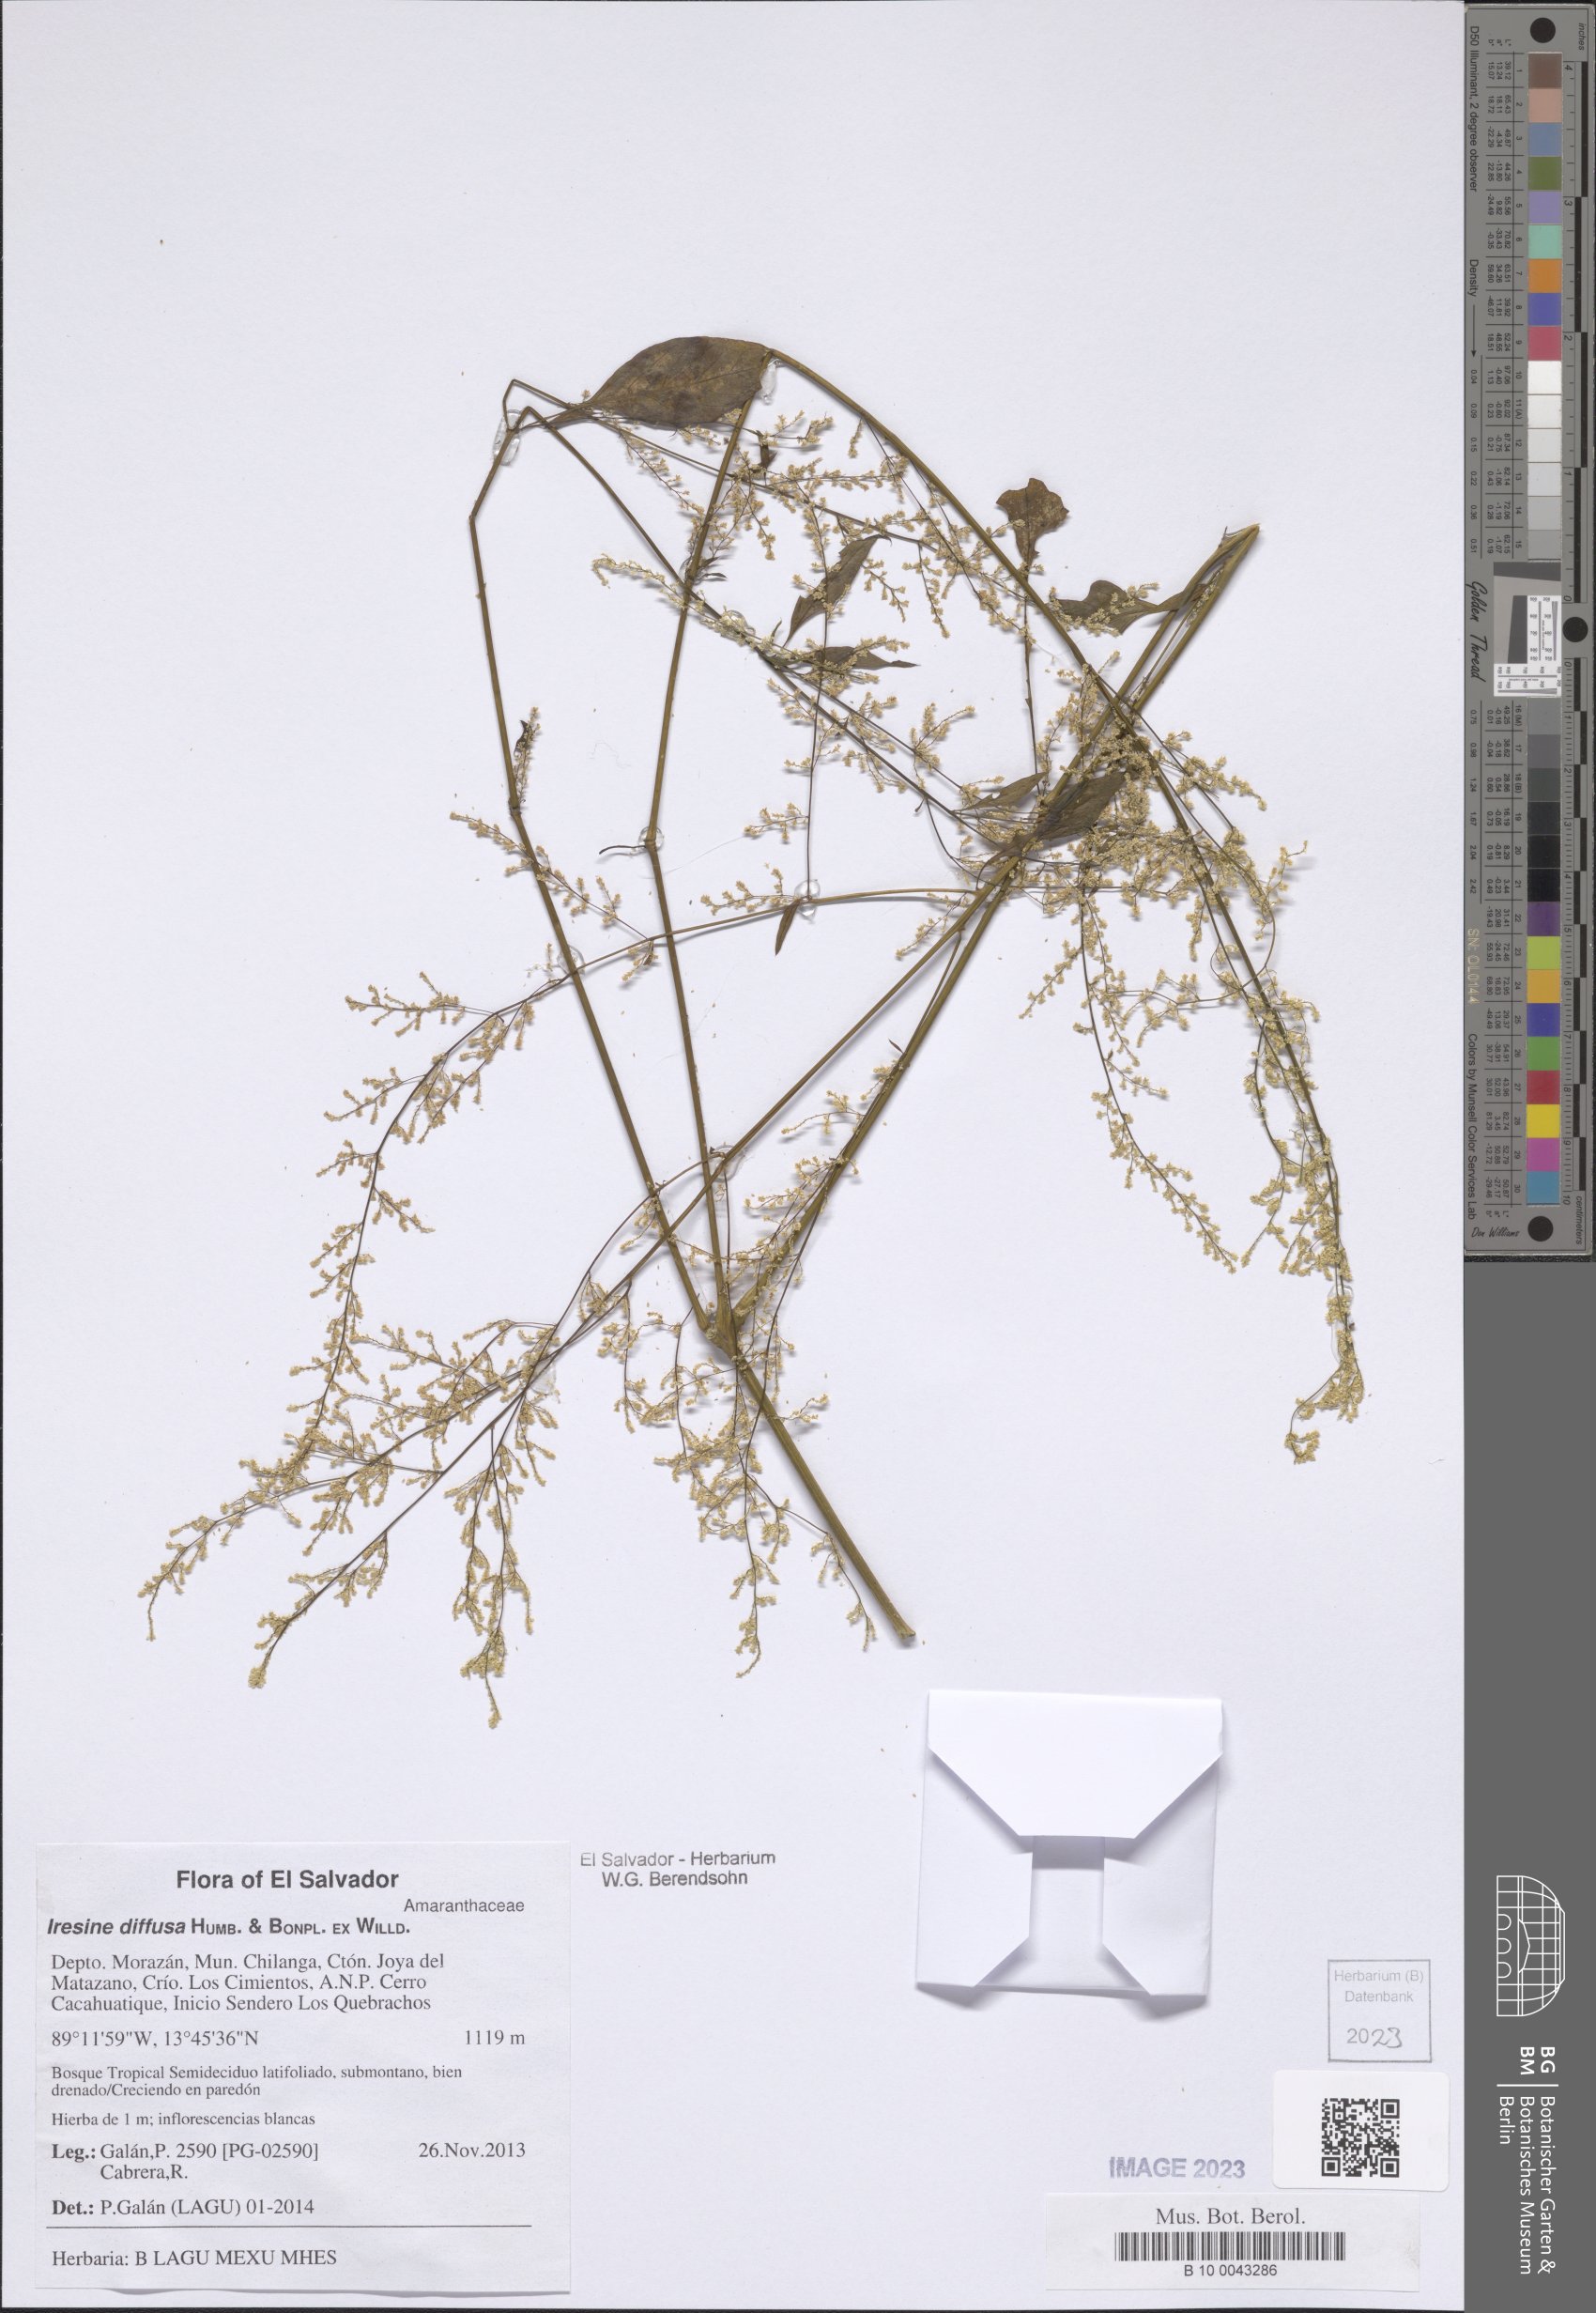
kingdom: Plantae
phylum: Tracheophyta
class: Magnoliopsida
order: Caryophyllales
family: Amaranthaceae
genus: Iresine
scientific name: Iresine diffusa
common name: Juba's-bush
